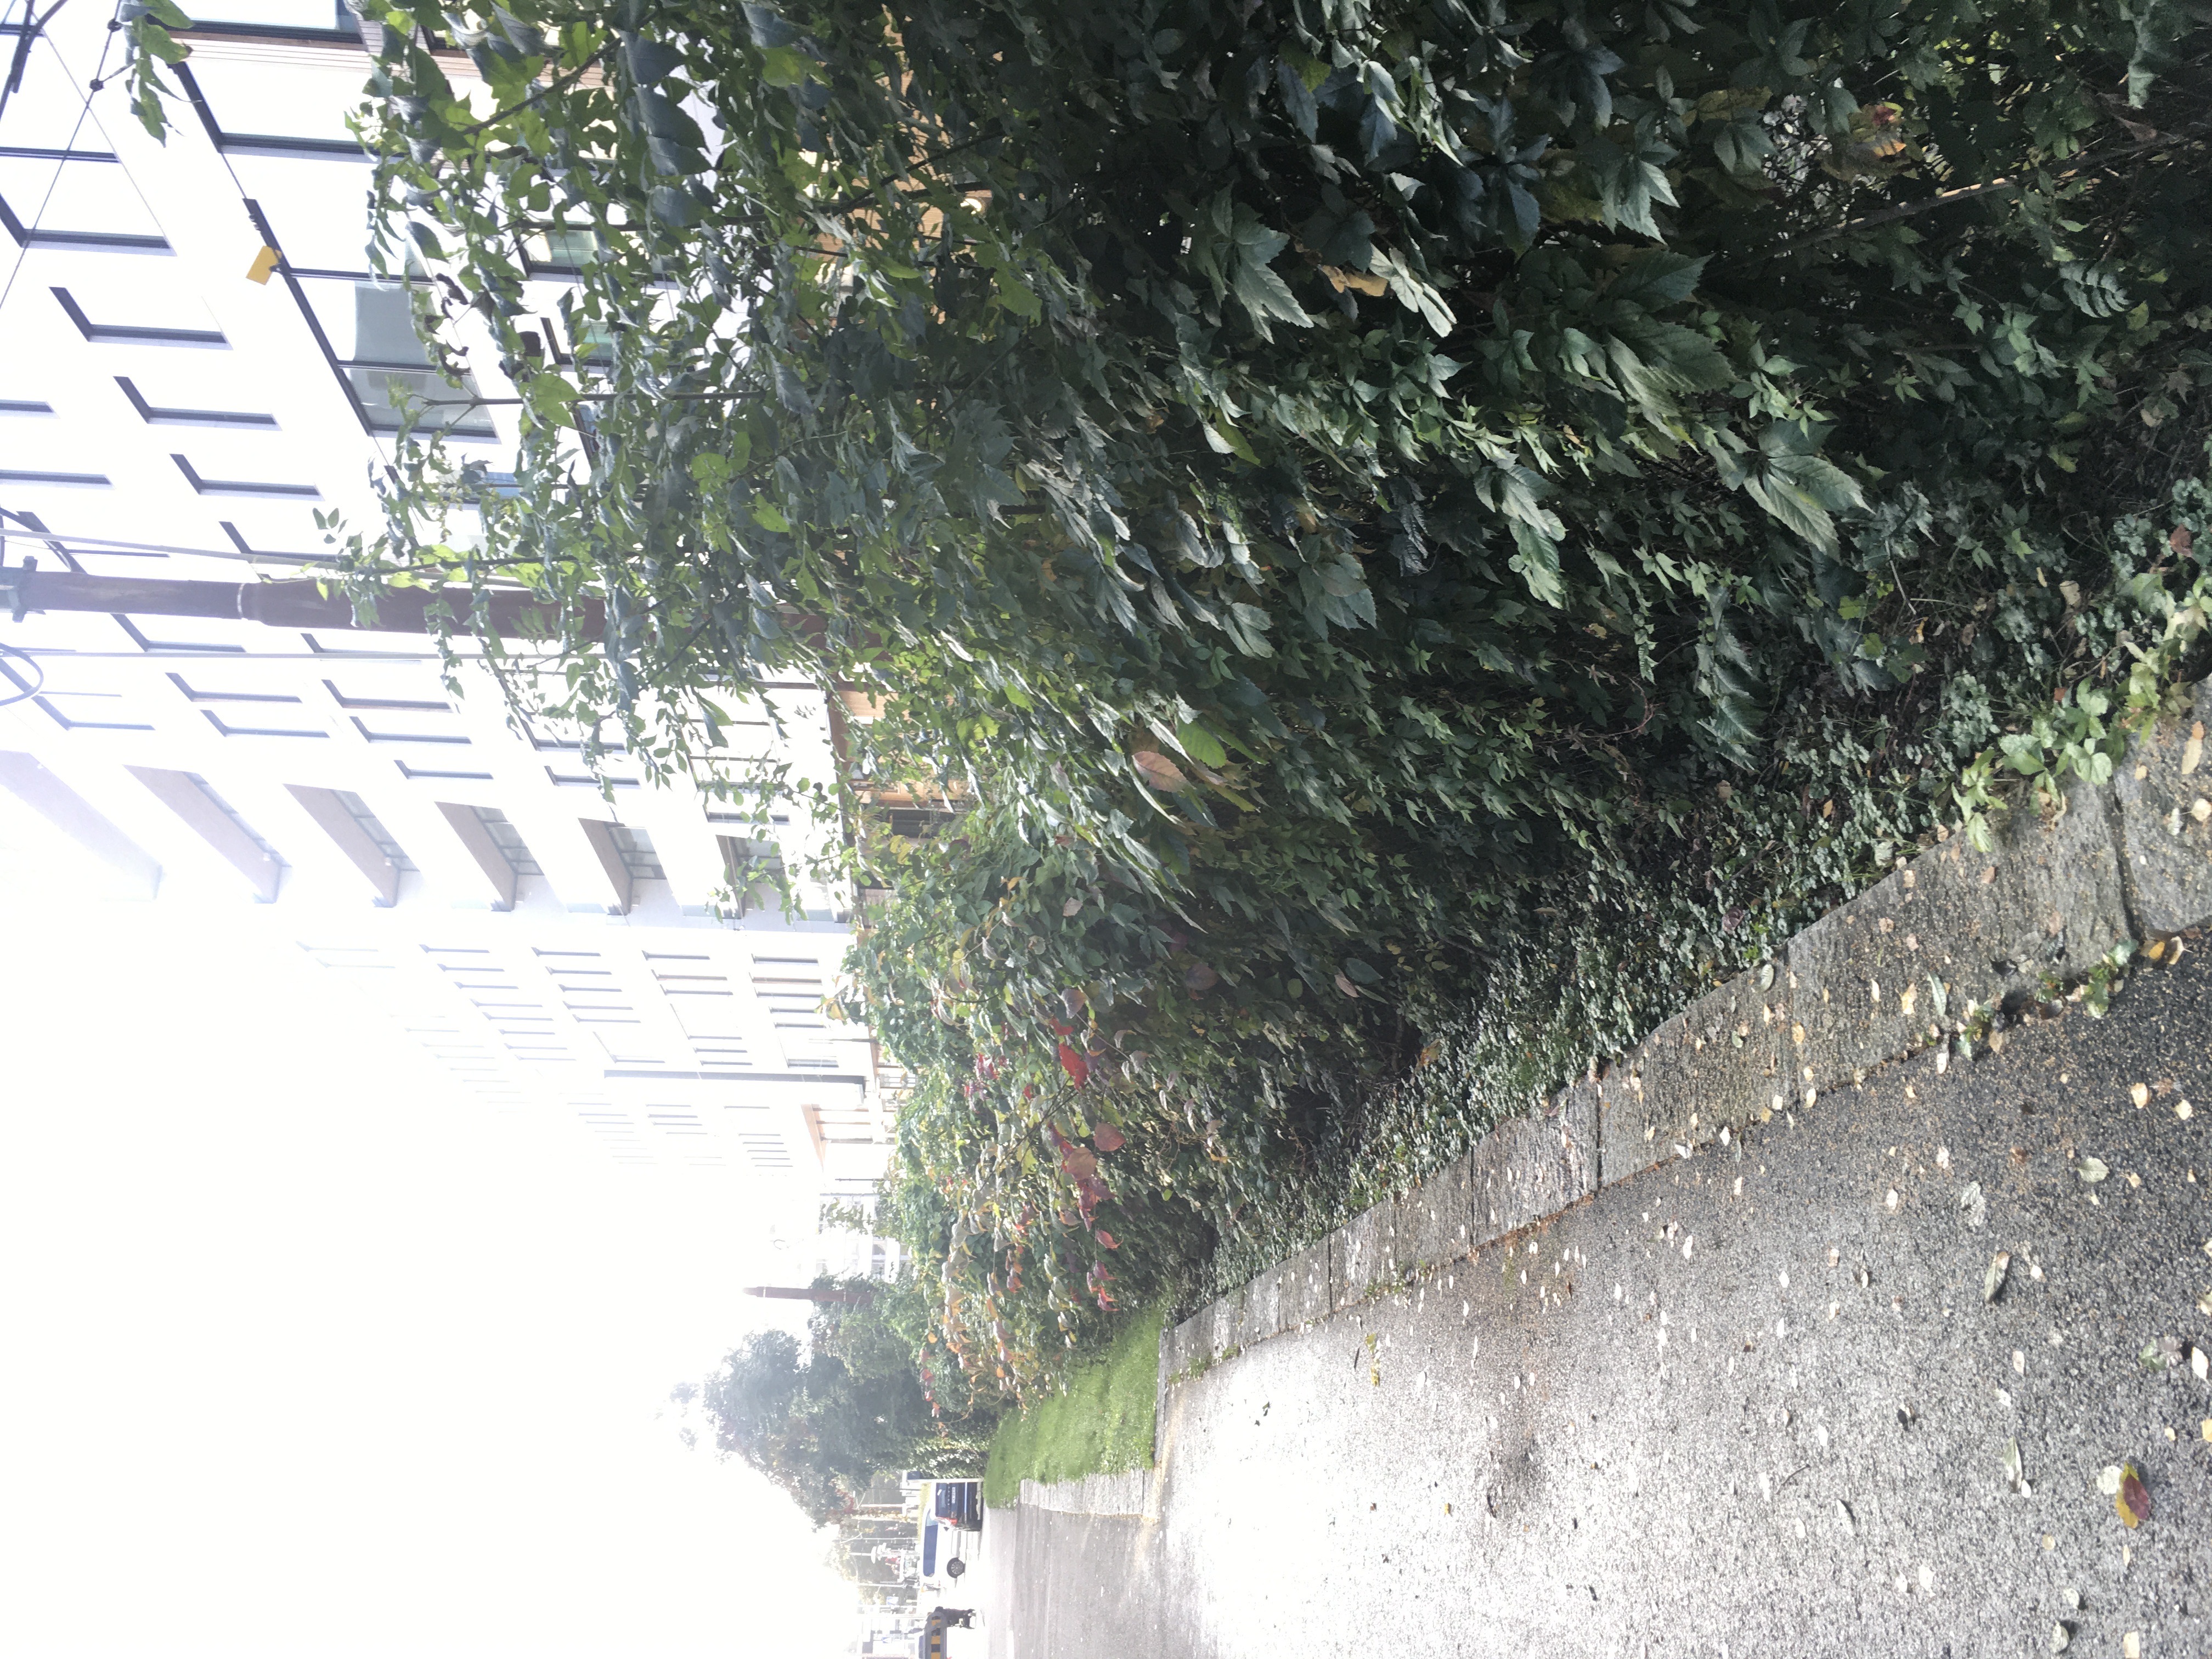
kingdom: Plantae
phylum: Tracheophyta
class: Magnoliopsida
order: Vitales
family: Vitaceae
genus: Parthenocissus
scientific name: Parthenocissus quinquefolia
